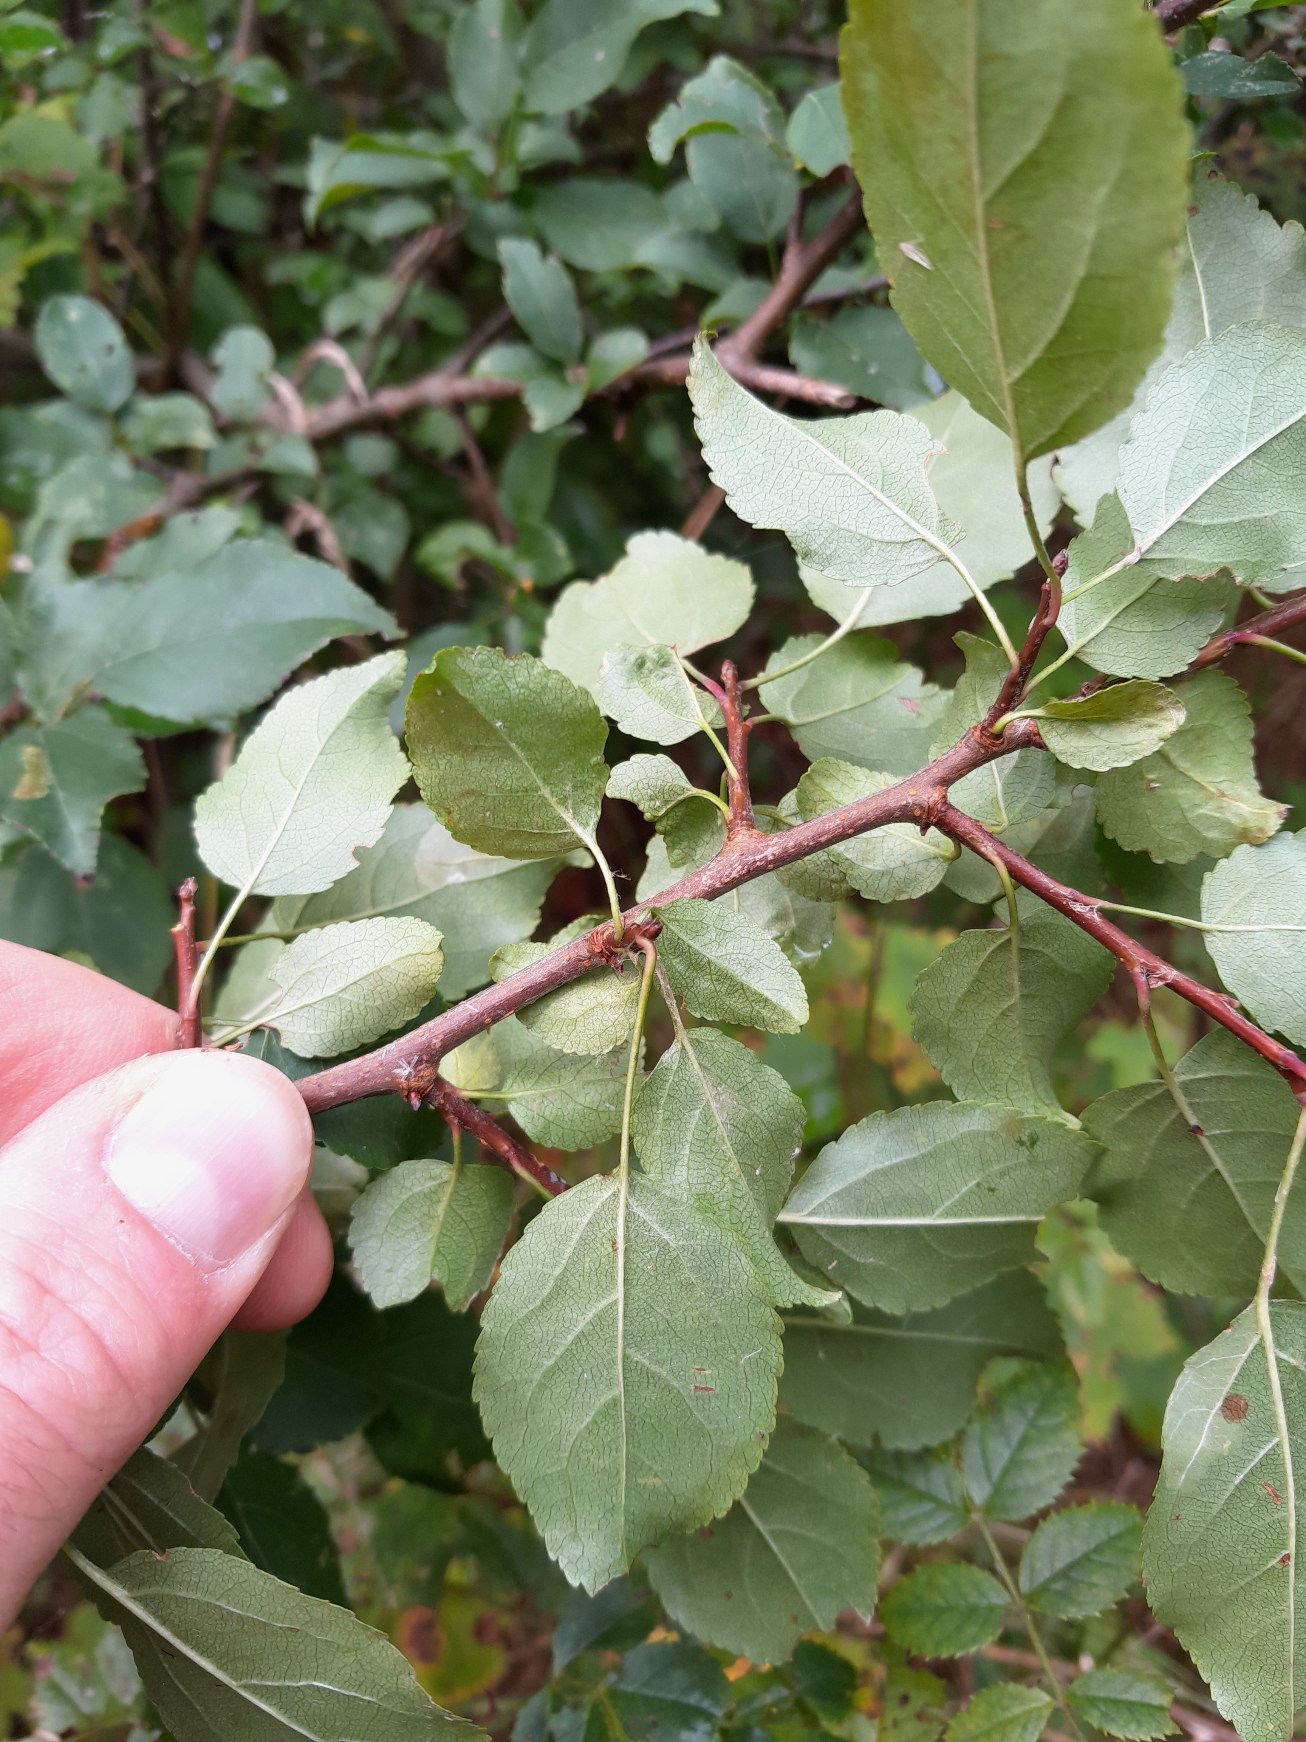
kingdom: Plantae
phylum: Tracheophyta
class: Magnoliopsida
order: Rosales
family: Rosaceae
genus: Malus
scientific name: Malus sylvestris
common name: Skov-æble
